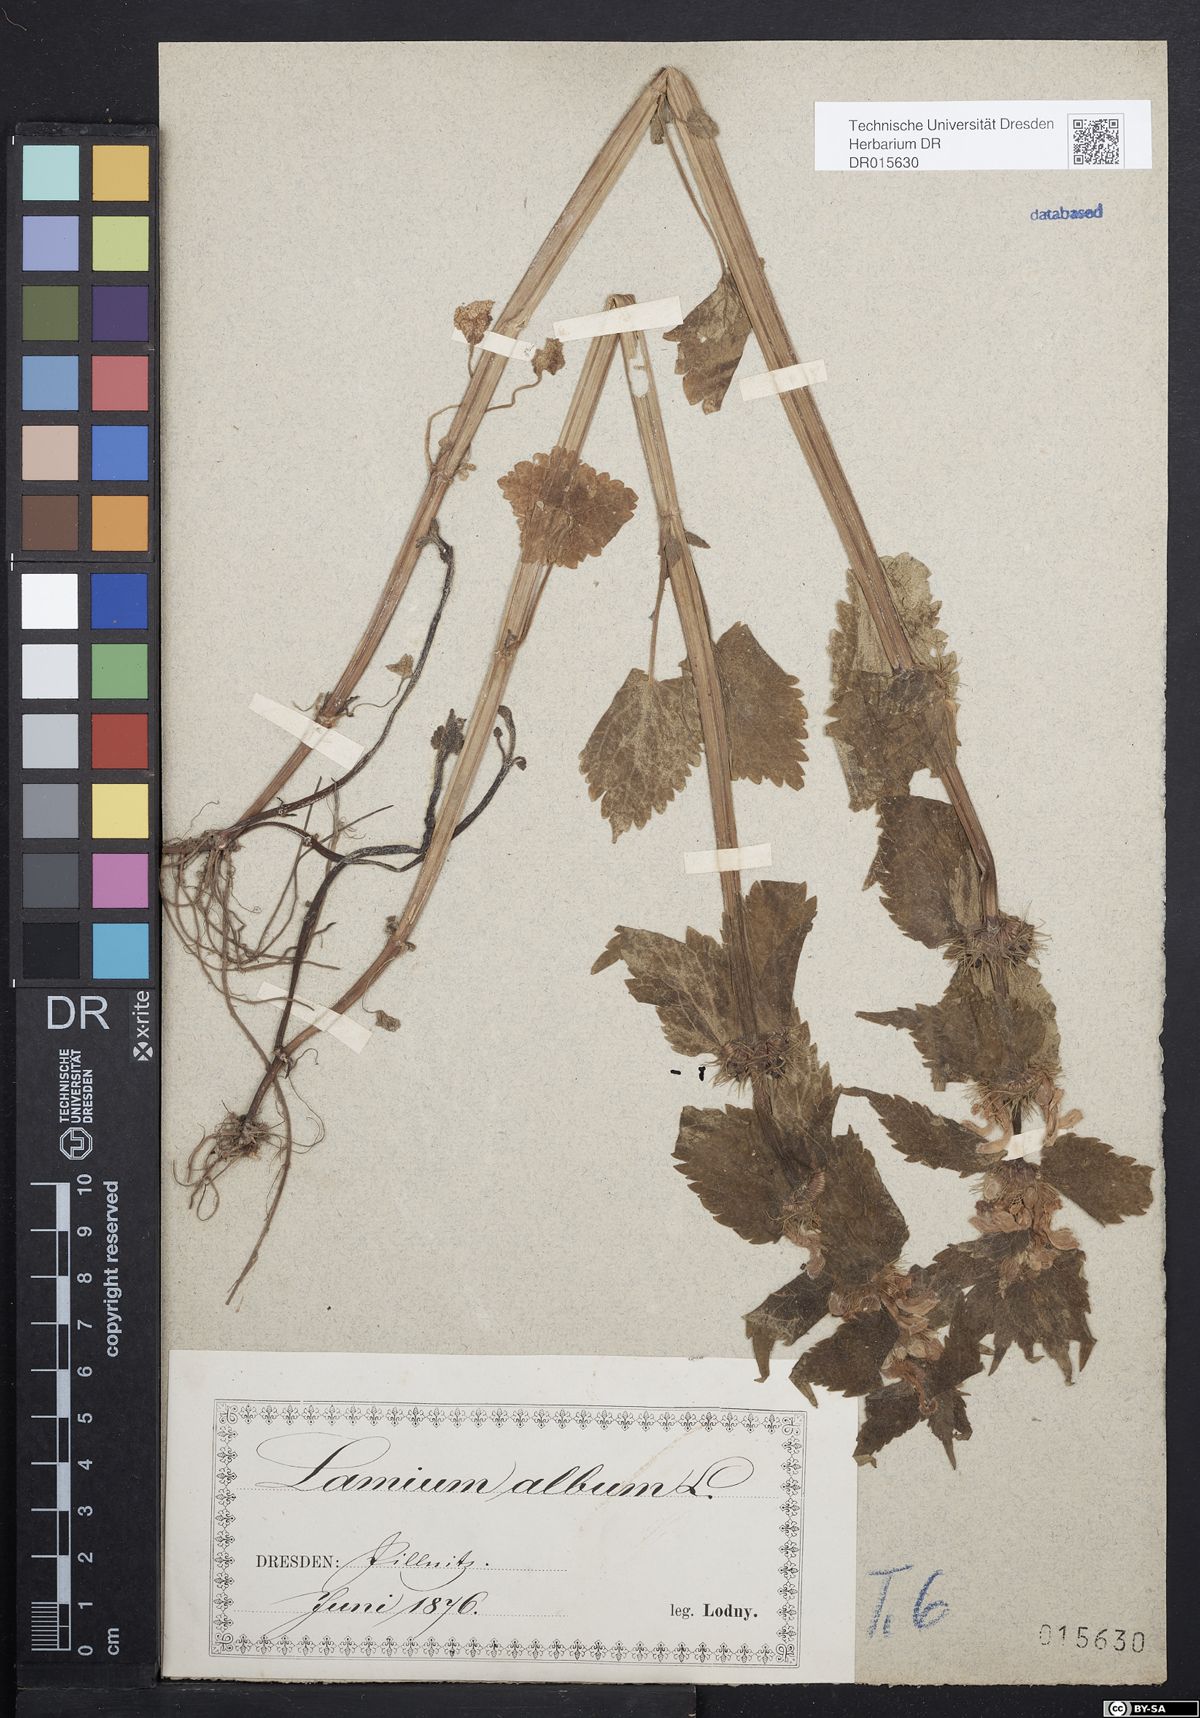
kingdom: Plantae
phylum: Tracheophyta
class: Magnoliopsida
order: Lamiales
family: Lamiaceae
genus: Lamium
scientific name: Lamium album
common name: White dead-nettle
